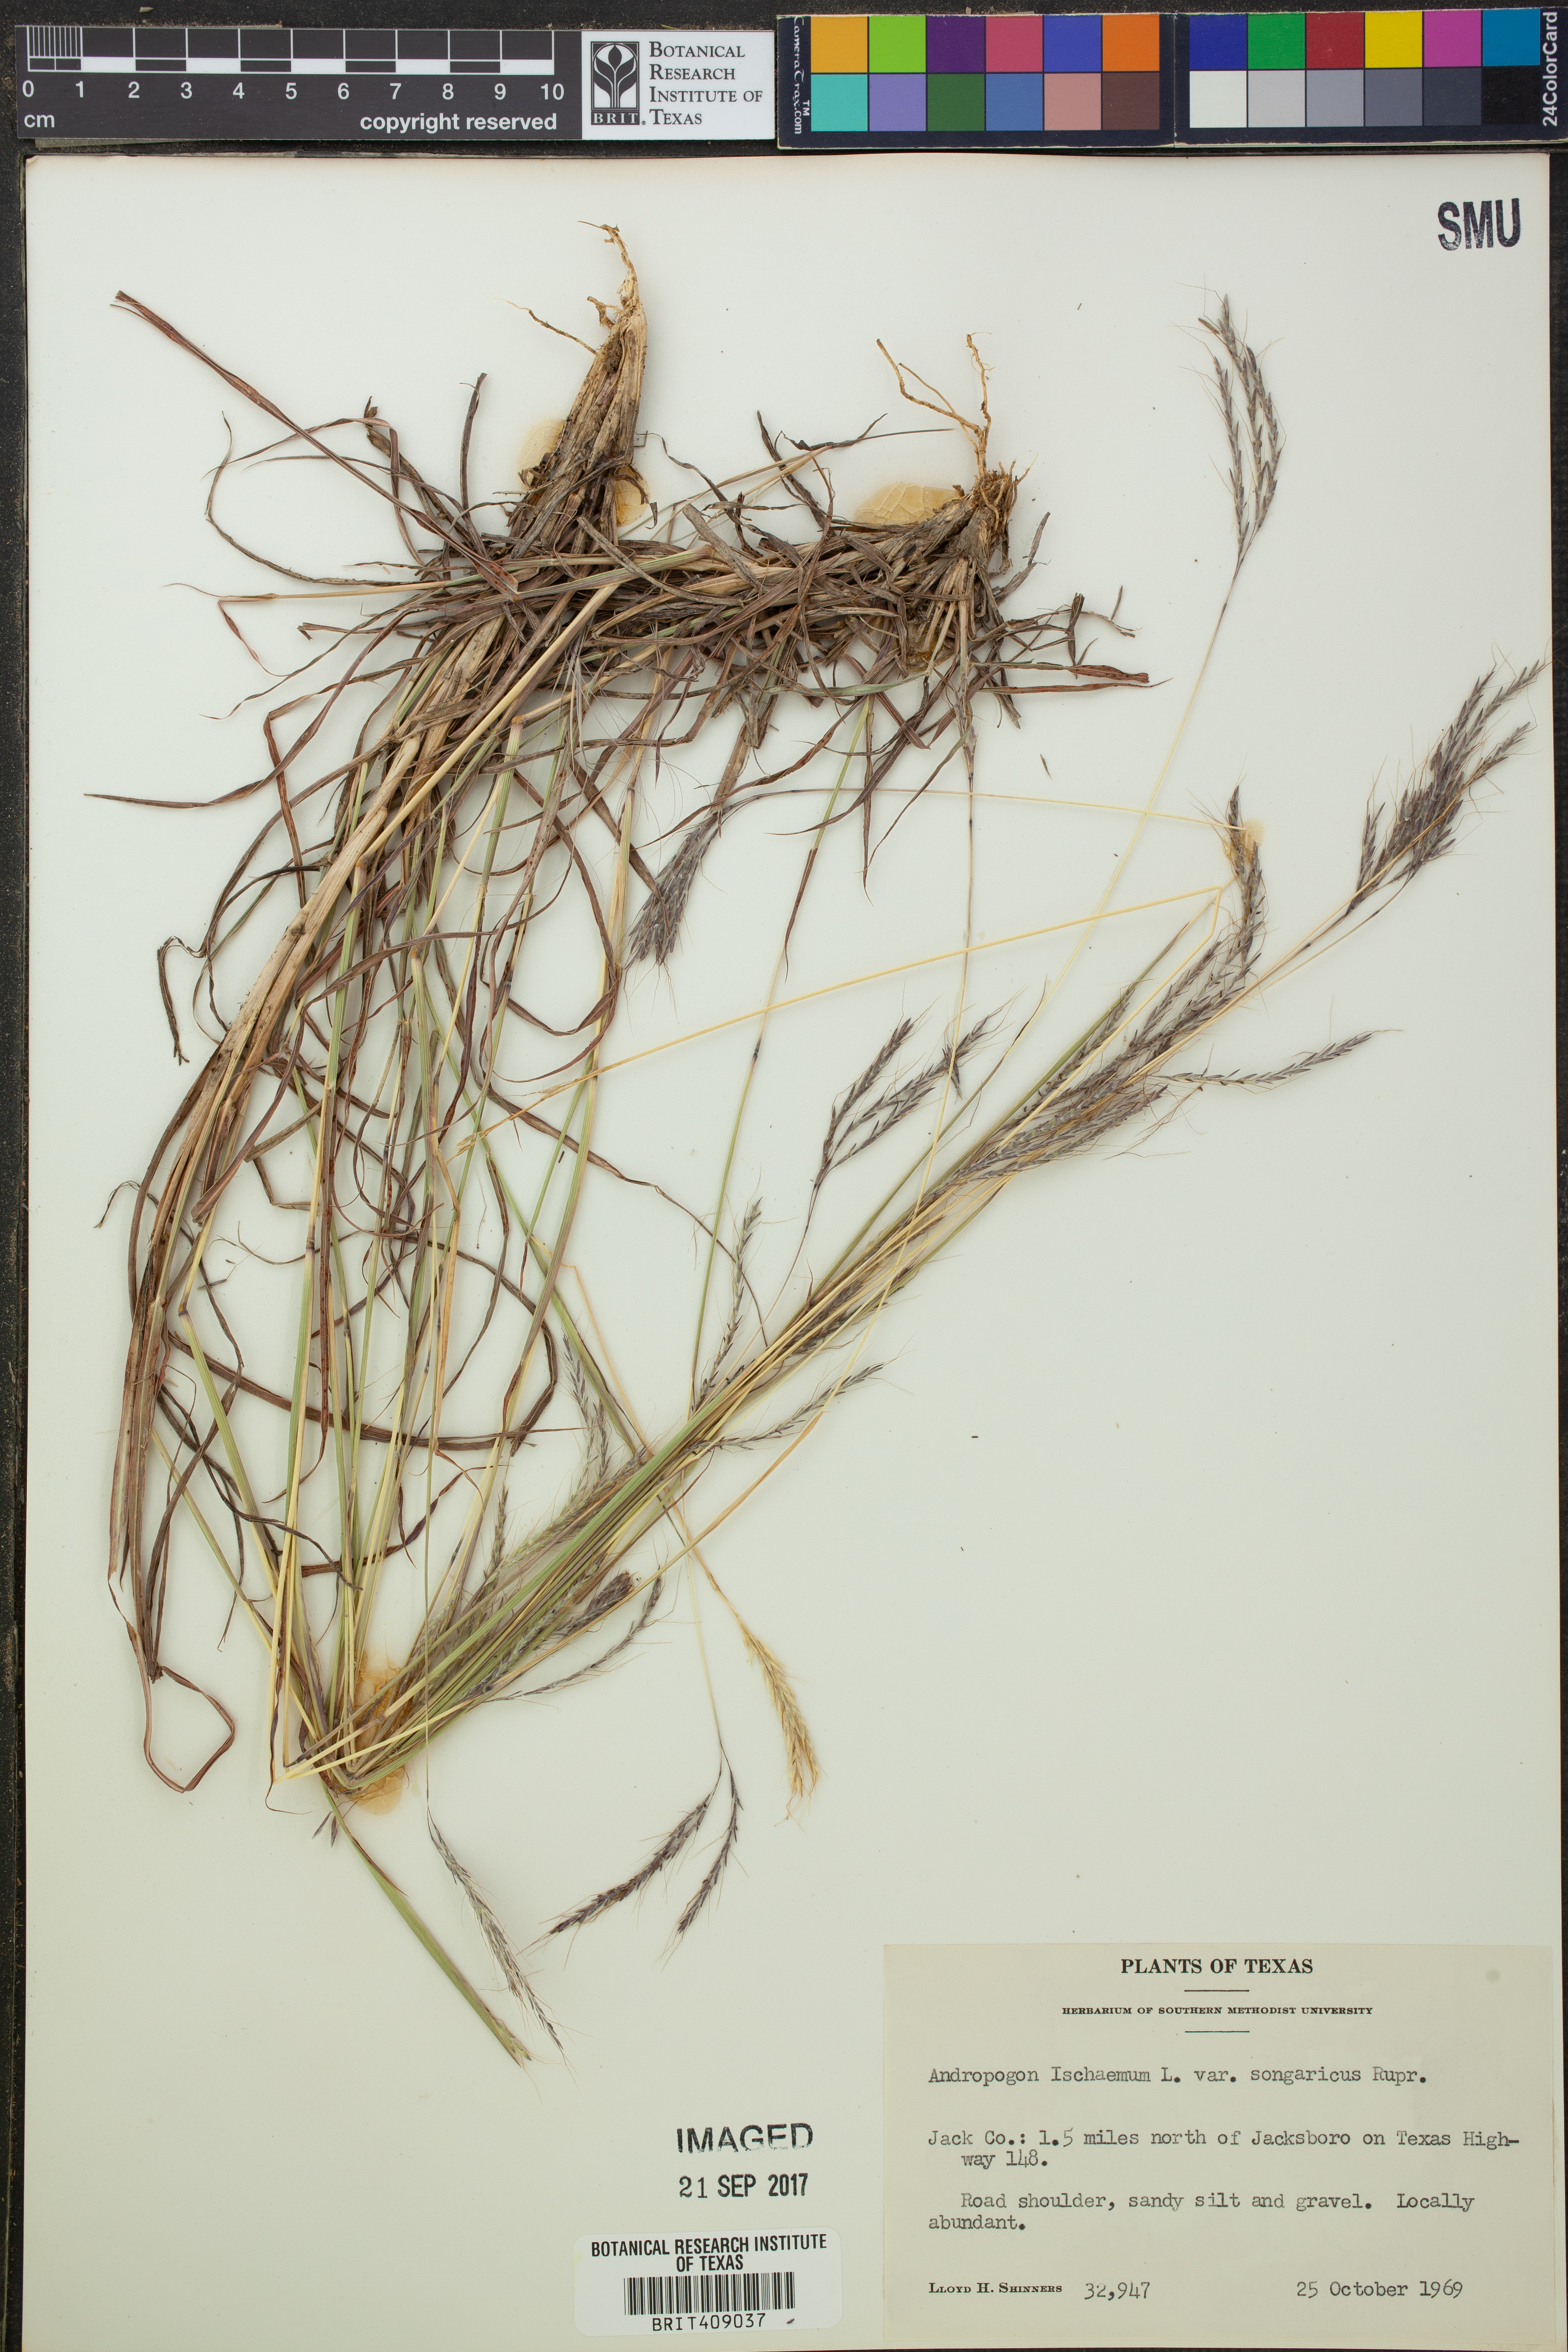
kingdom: Plantae
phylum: Tracheophyta
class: Liliopsida
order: Poales
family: Poaceae
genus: Bothriochloa
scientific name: Bothriochloa ischaemum
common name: Yellow bluestem
